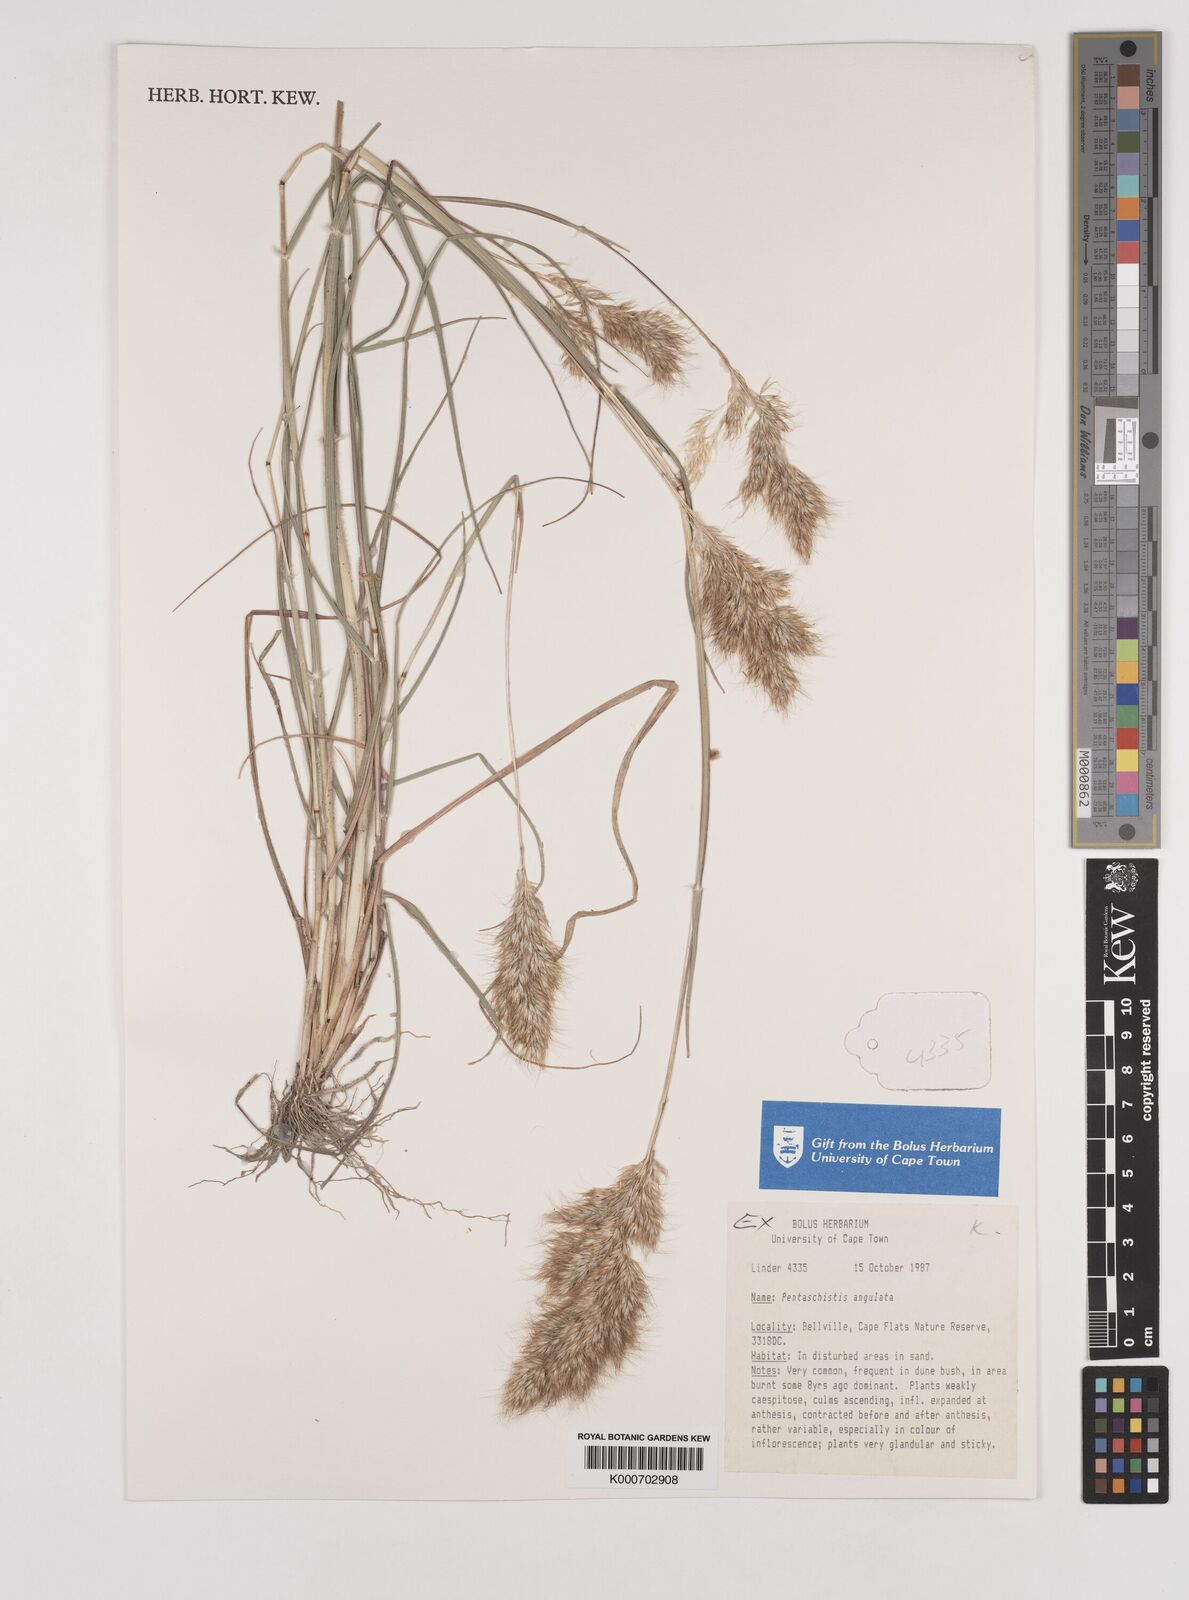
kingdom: Plantae
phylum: Tracheophyta
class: Liliopsida
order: Poales
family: Poaceae
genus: Pentameris
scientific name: Pentameris barbata
